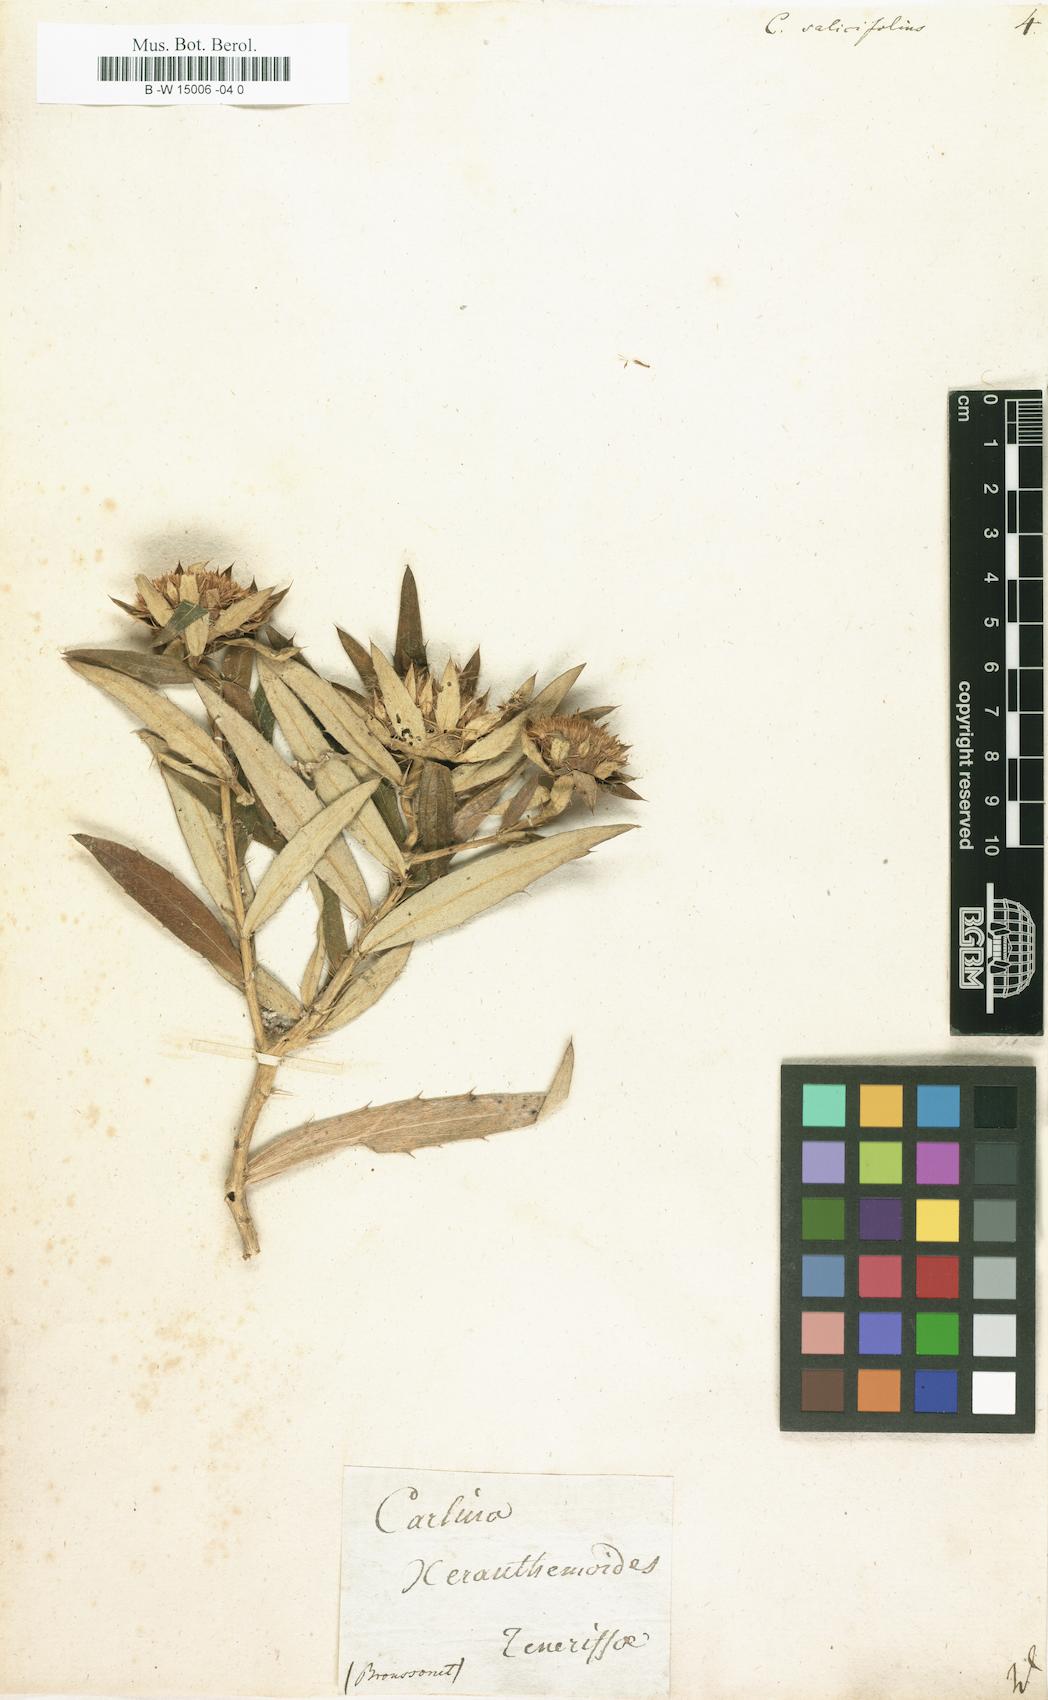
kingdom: Plantae
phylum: Tracheophyta
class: Magnoliopsida
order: Asterales
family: Asteraceae
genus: Carlina
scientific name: Carlina salicifolia
